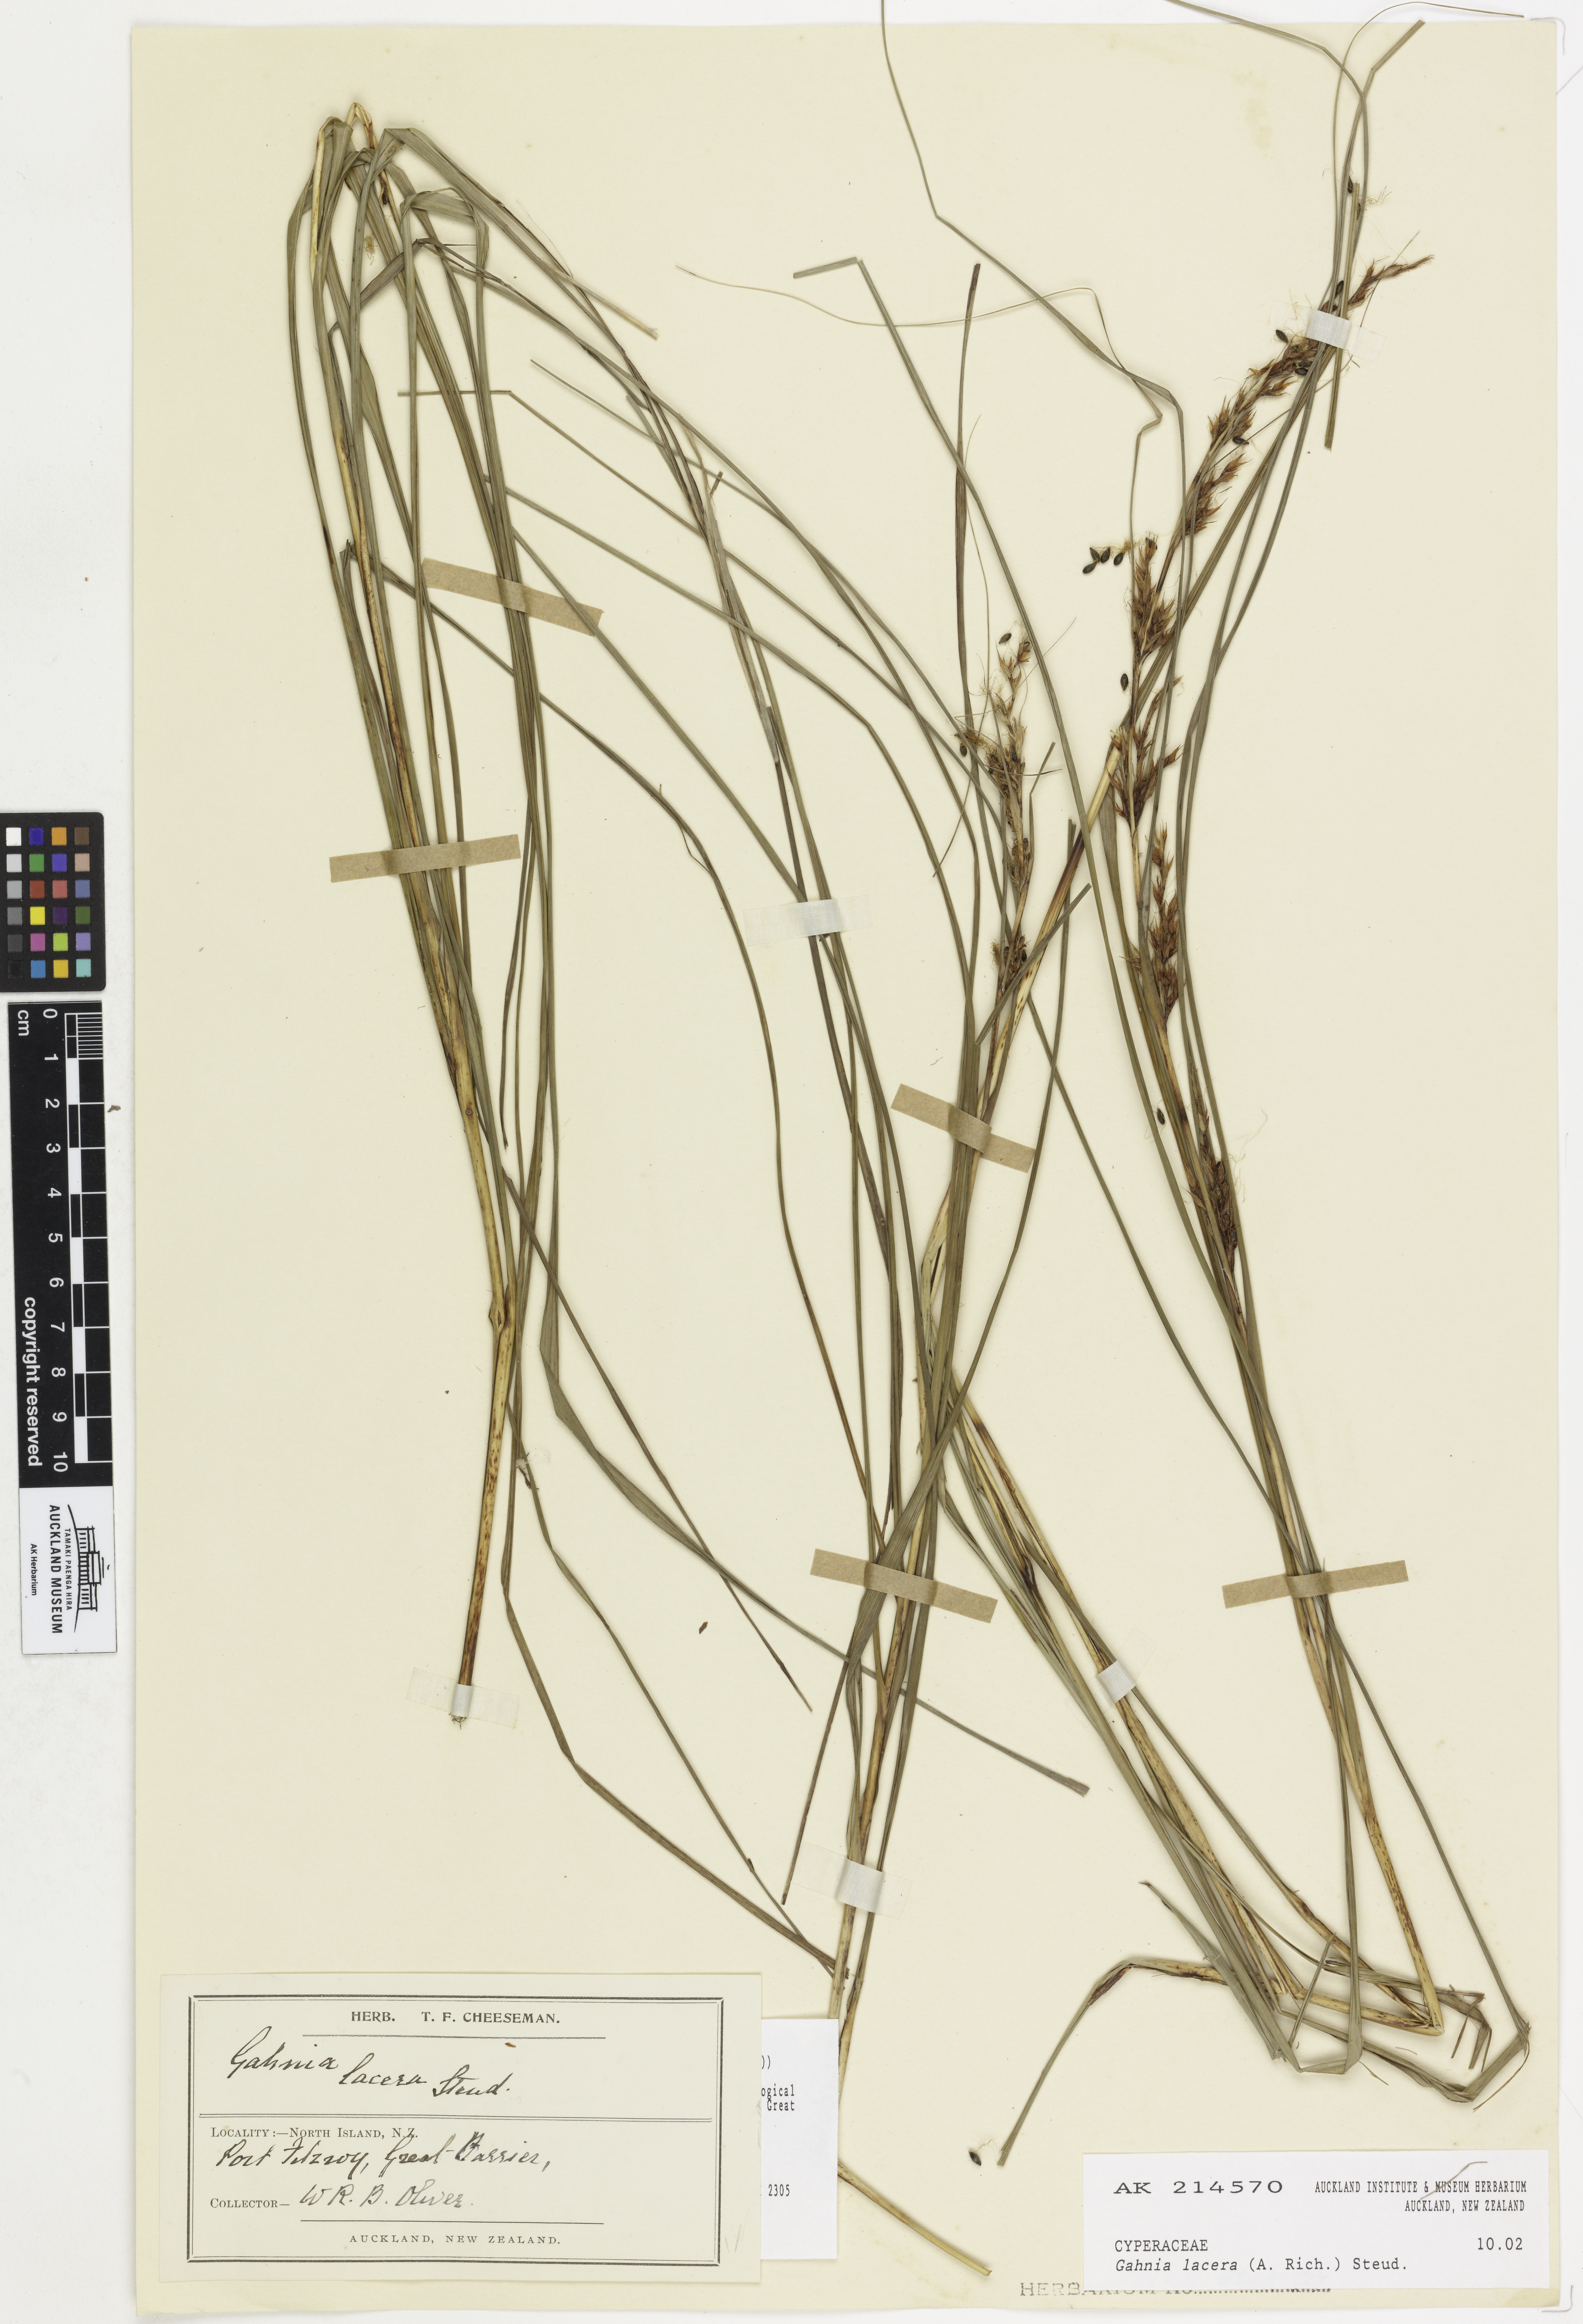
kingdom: Plantae
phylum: Tracheophyta
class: Liliopsida
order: Poales
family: Cyperaceae
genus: Gahnia
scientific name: Gahnia lacera
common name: Sawsedge
